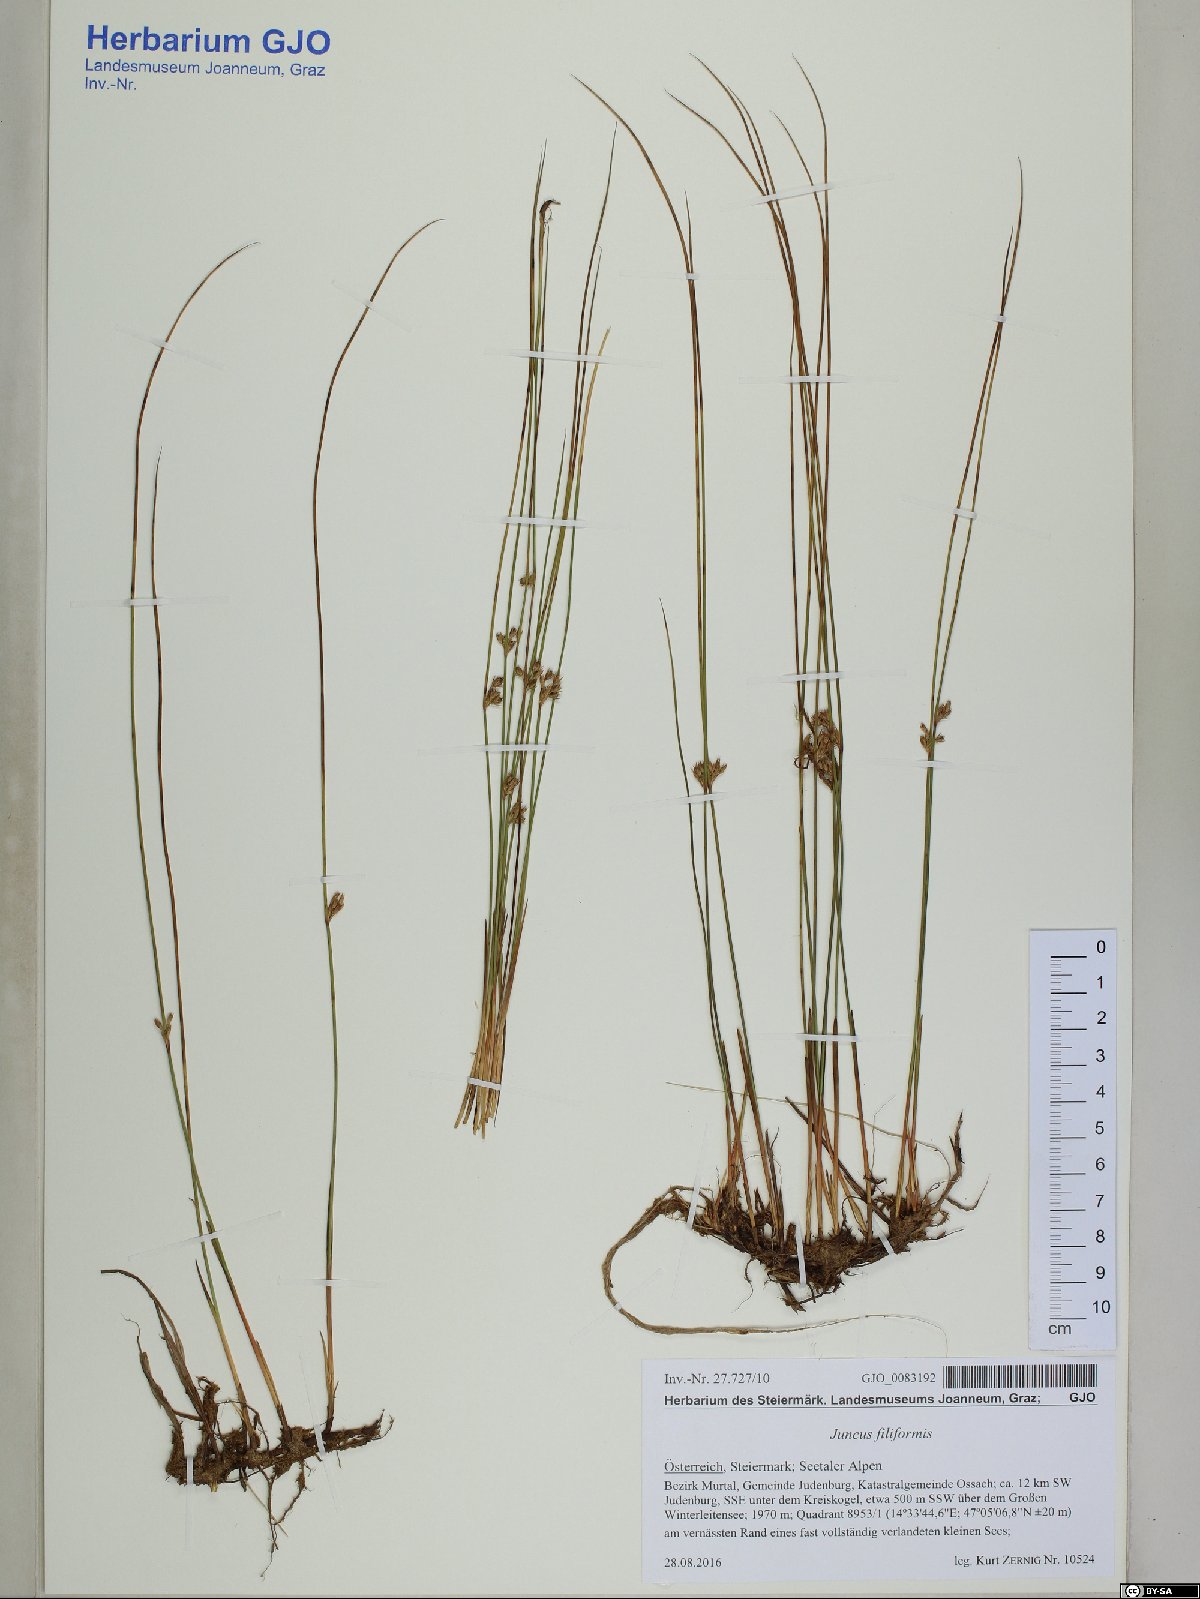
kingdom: Plantae
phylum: Tracheophyta
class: Liliopsida
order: Poales
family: Juncaceae
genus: Juncus
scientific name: Juncus filiformis
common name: Thread rush
